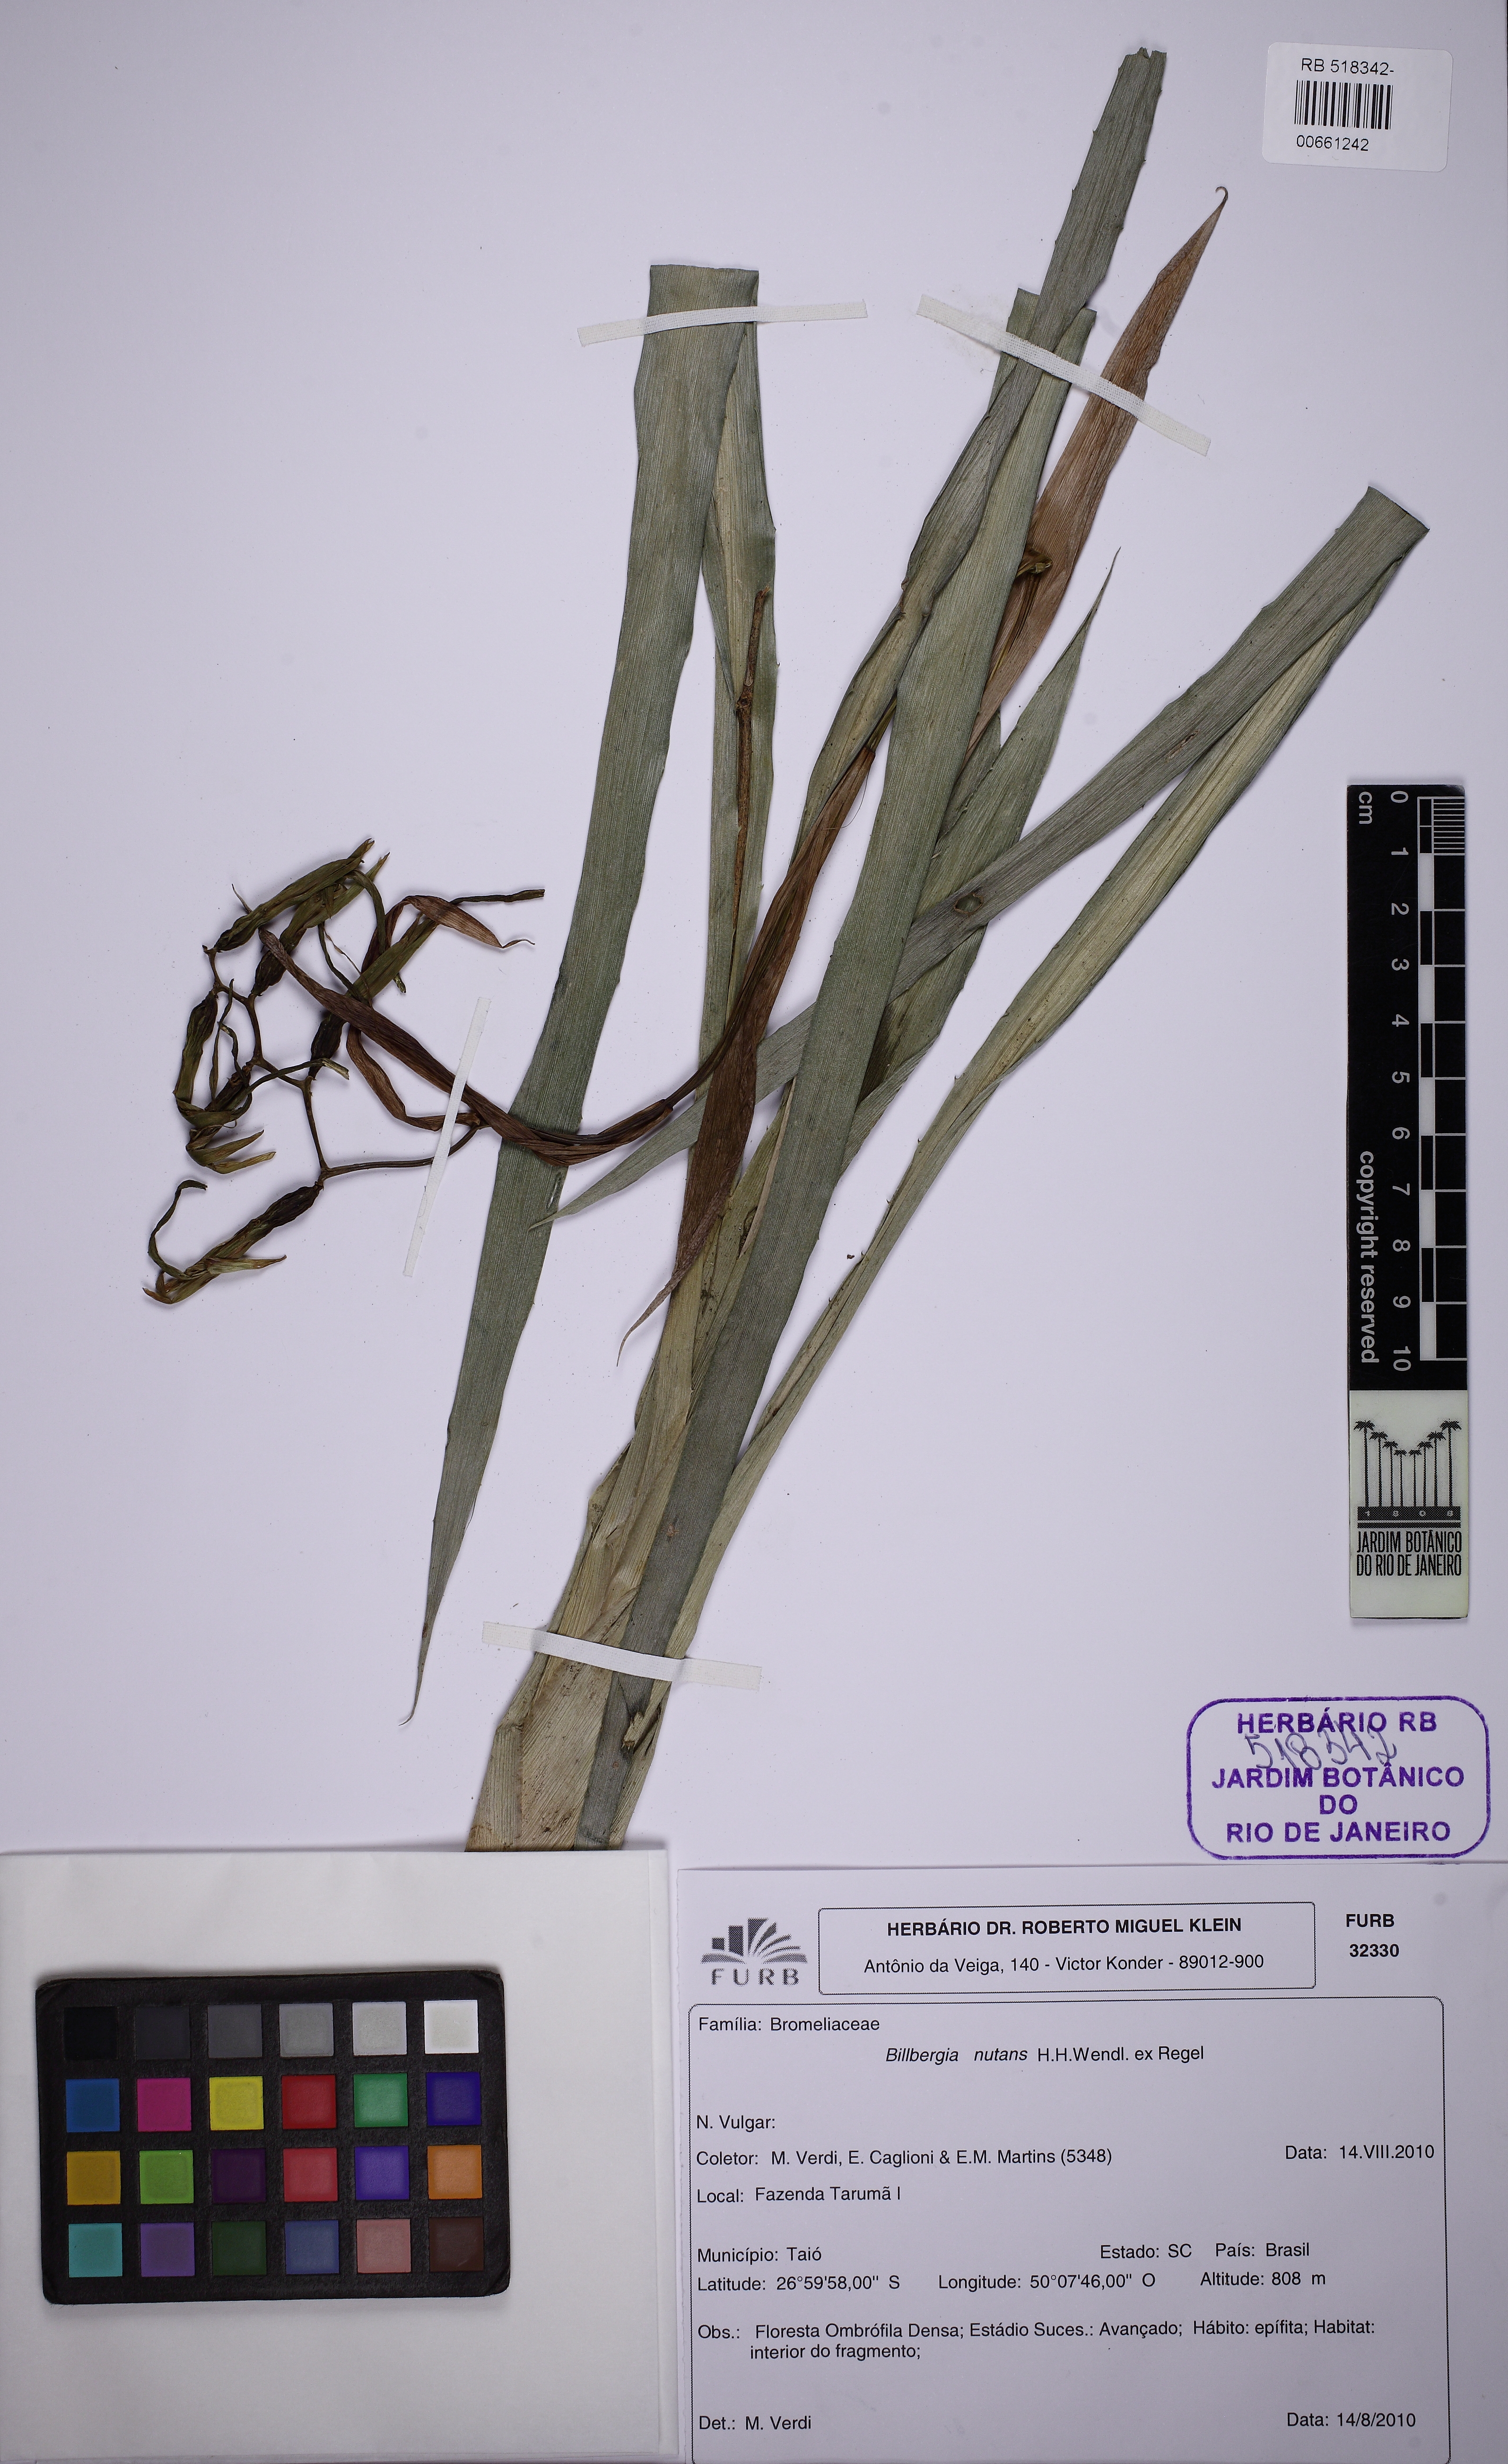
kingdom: Plantae
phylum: Tracheophyta
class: Liliopsida
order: Poales
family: Bromeliaceae
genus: Billbergia
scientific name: Billbergia nutans
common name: Friendship-plant
